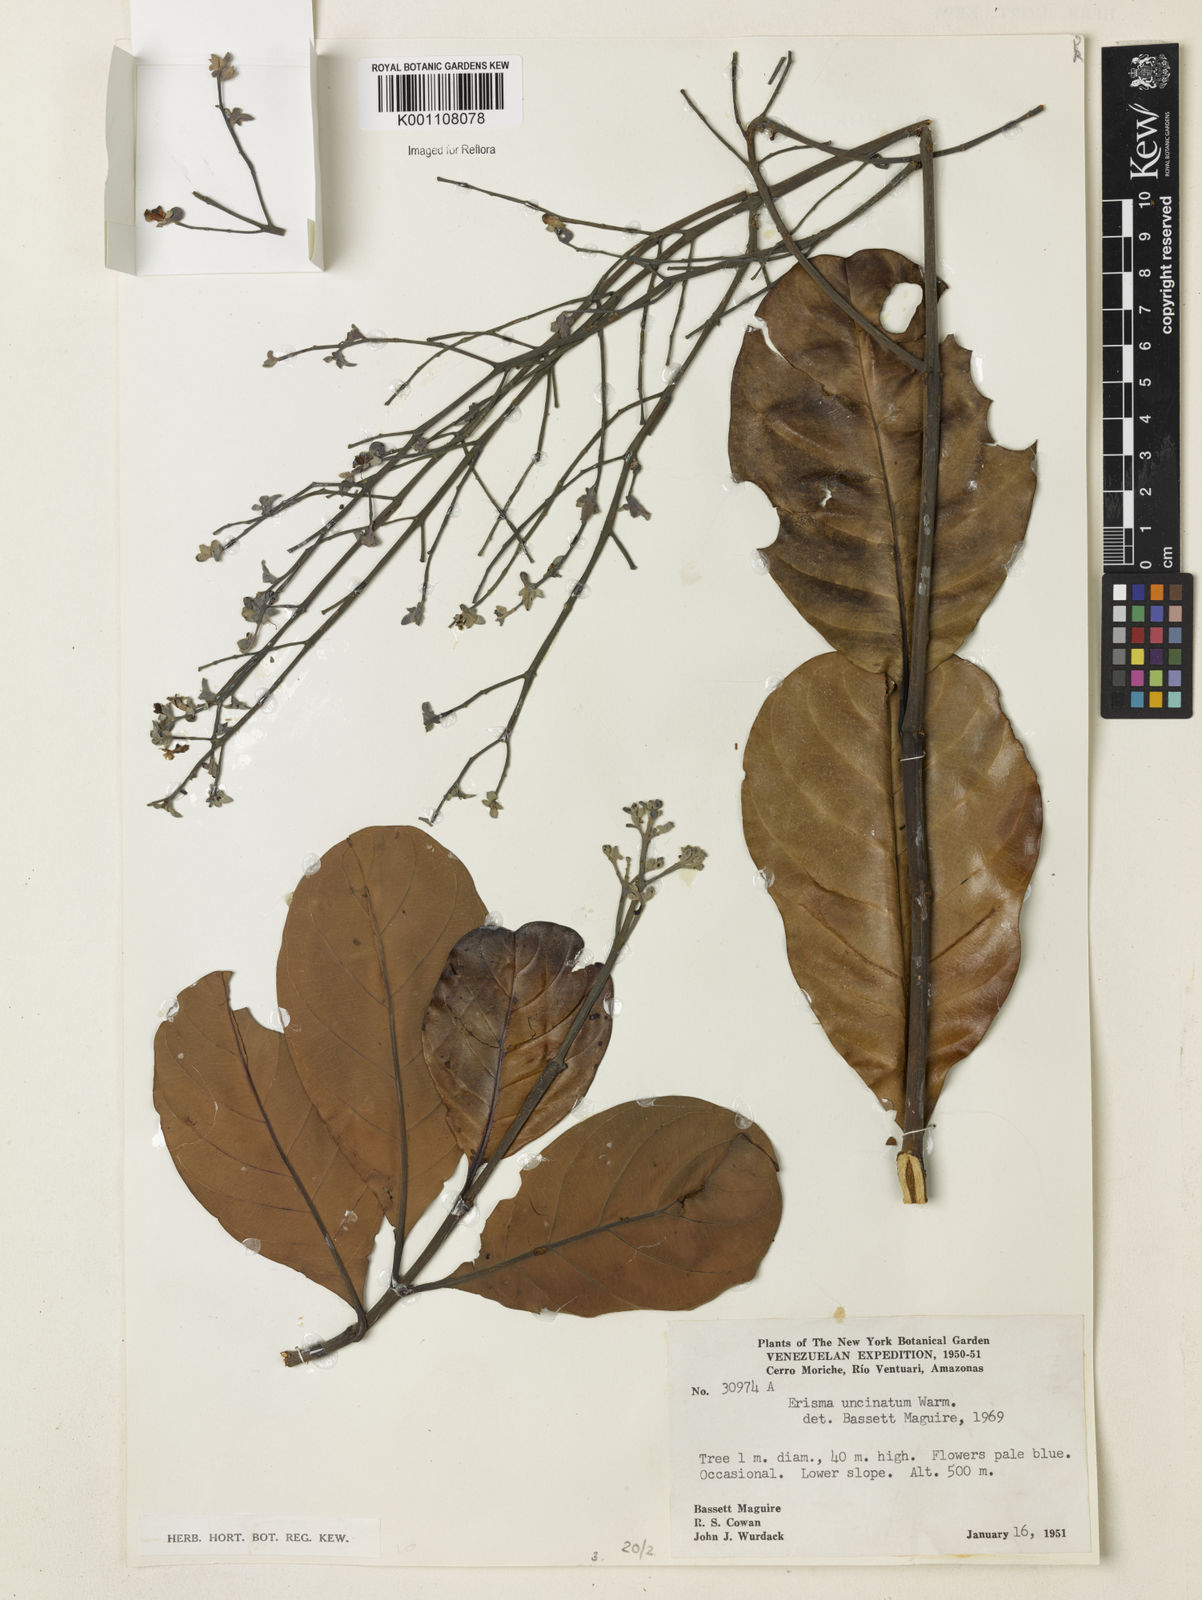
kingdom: Plantae
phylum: Tracheophyta
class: Magnoliopsida
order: Myrtales
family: Vochysiaceae
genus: Erisma
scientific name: Erisma uncinatum
